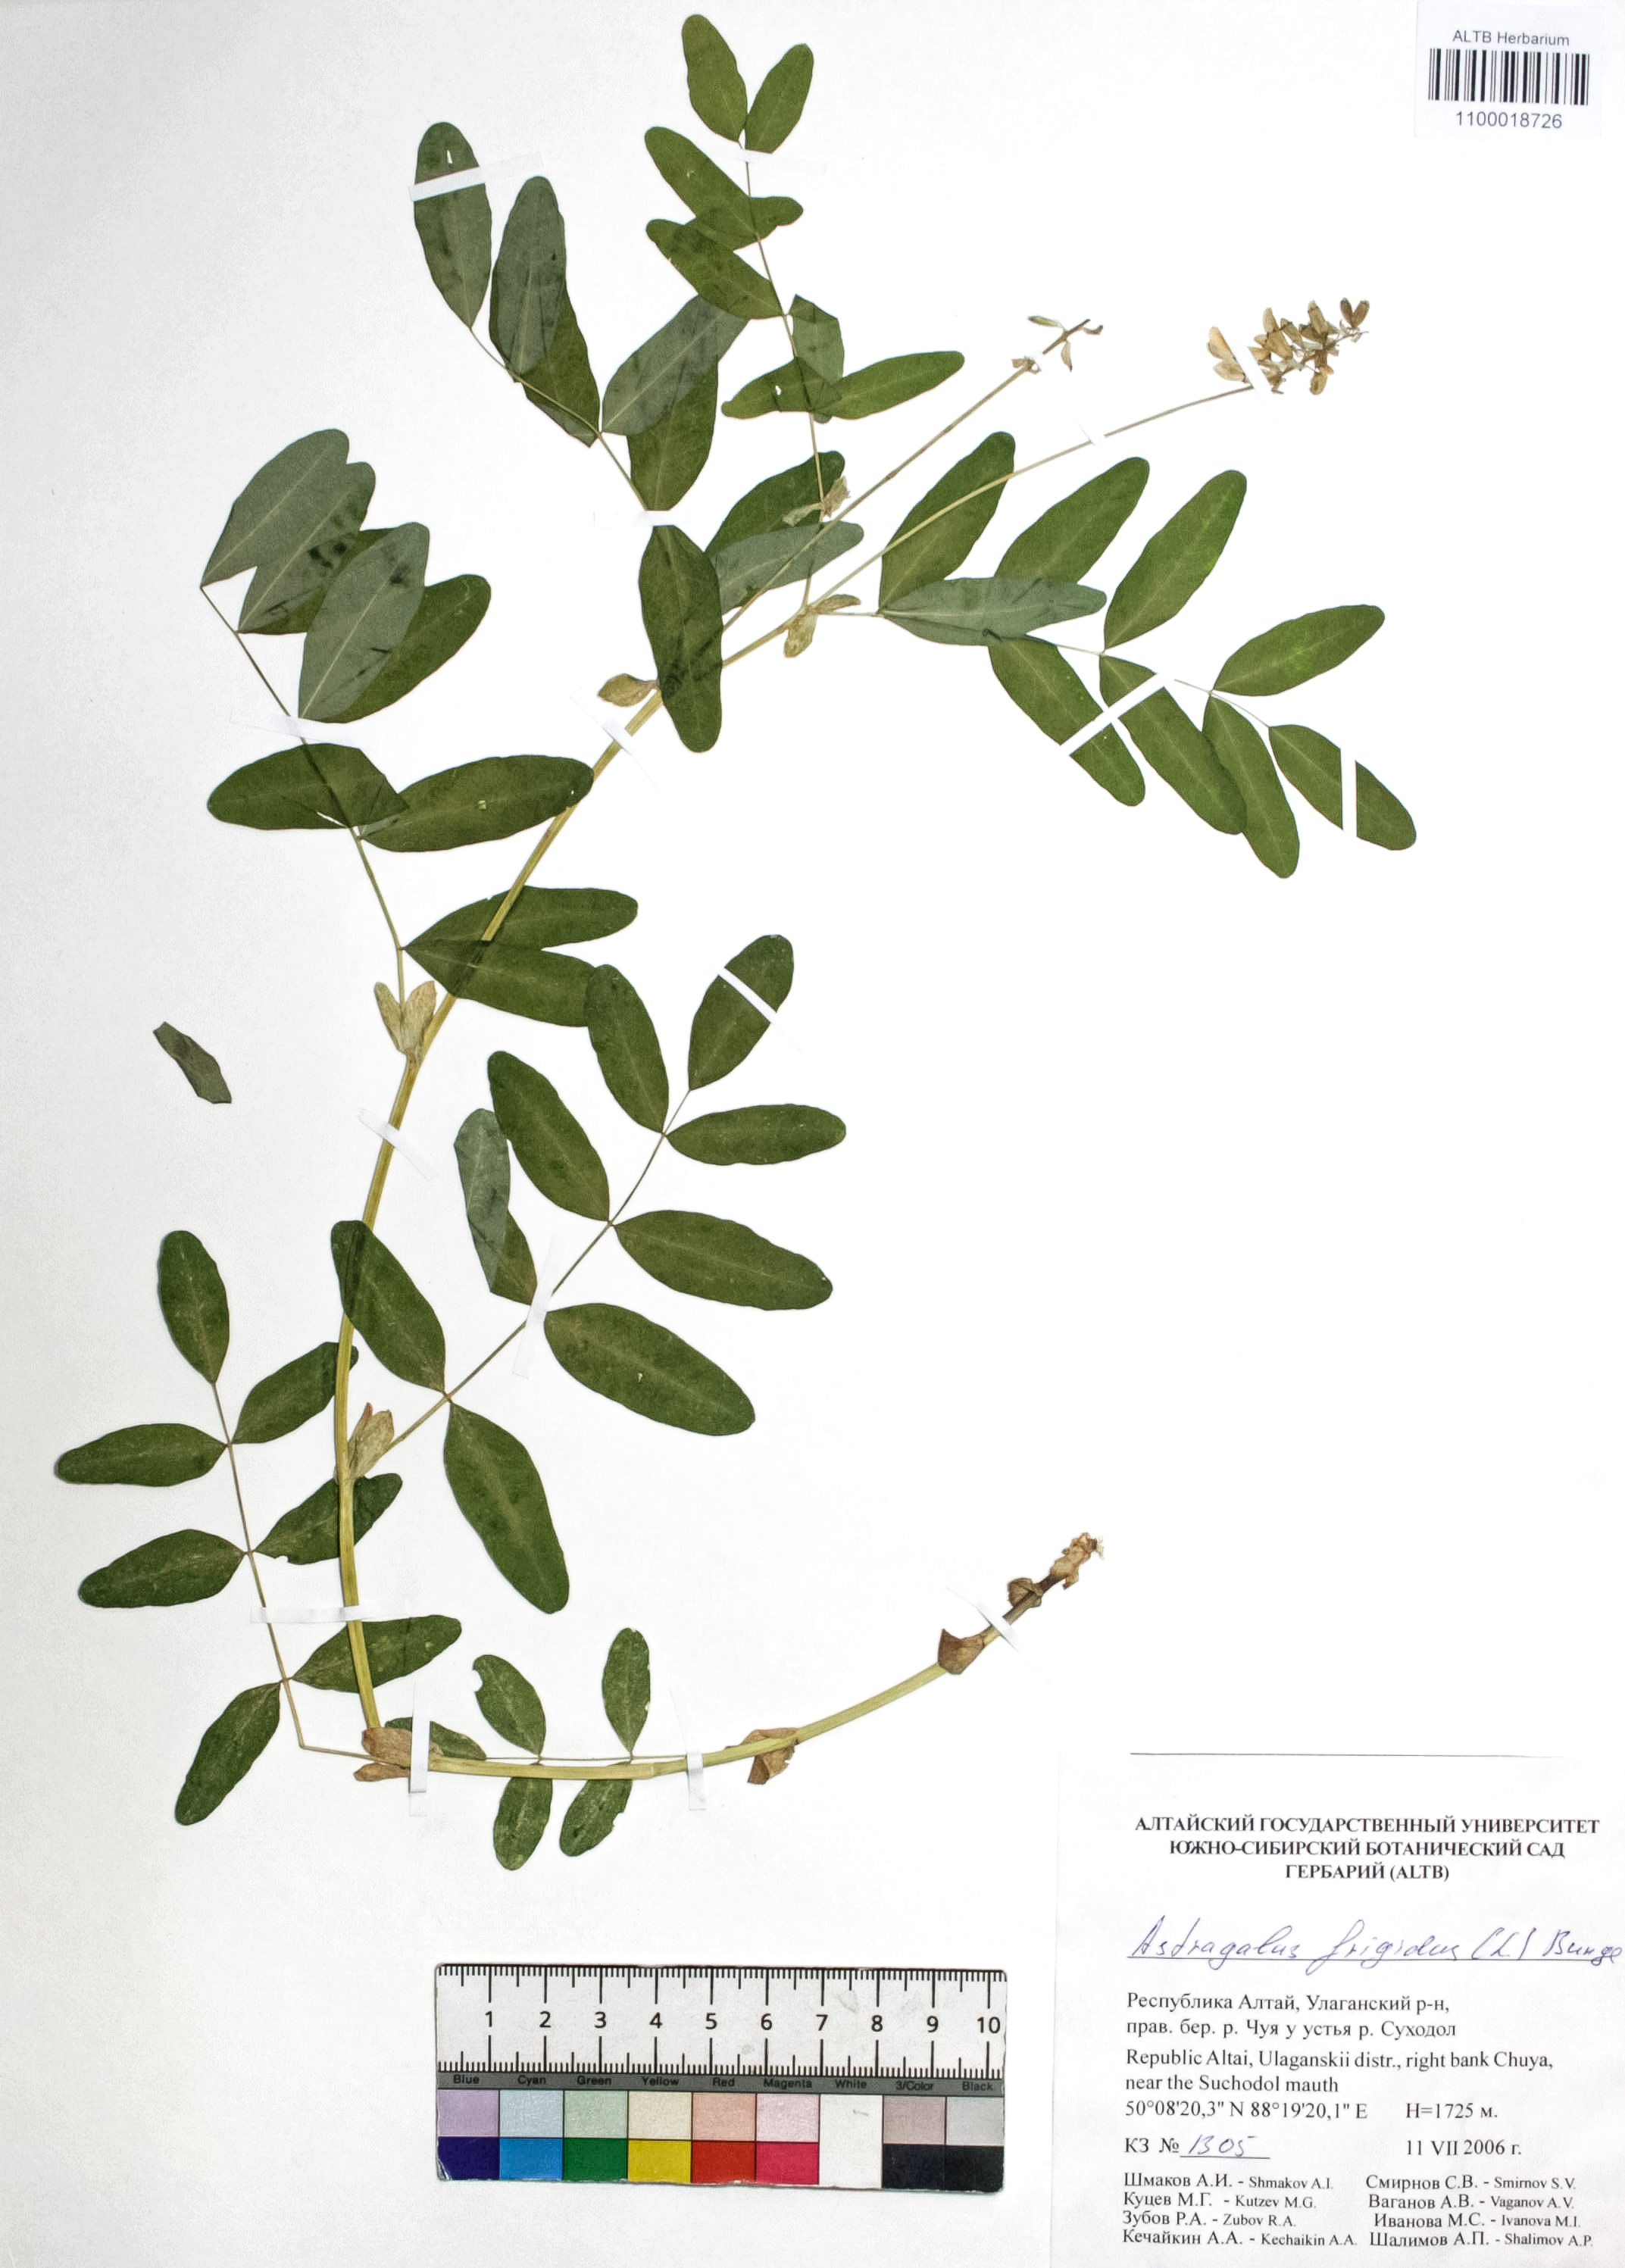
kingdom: Plantae
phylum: Tracheophyta
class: Magnoliopsida
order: Fabales
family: Fabaceae
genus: Astragalus
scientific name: Astragalus frigidus
